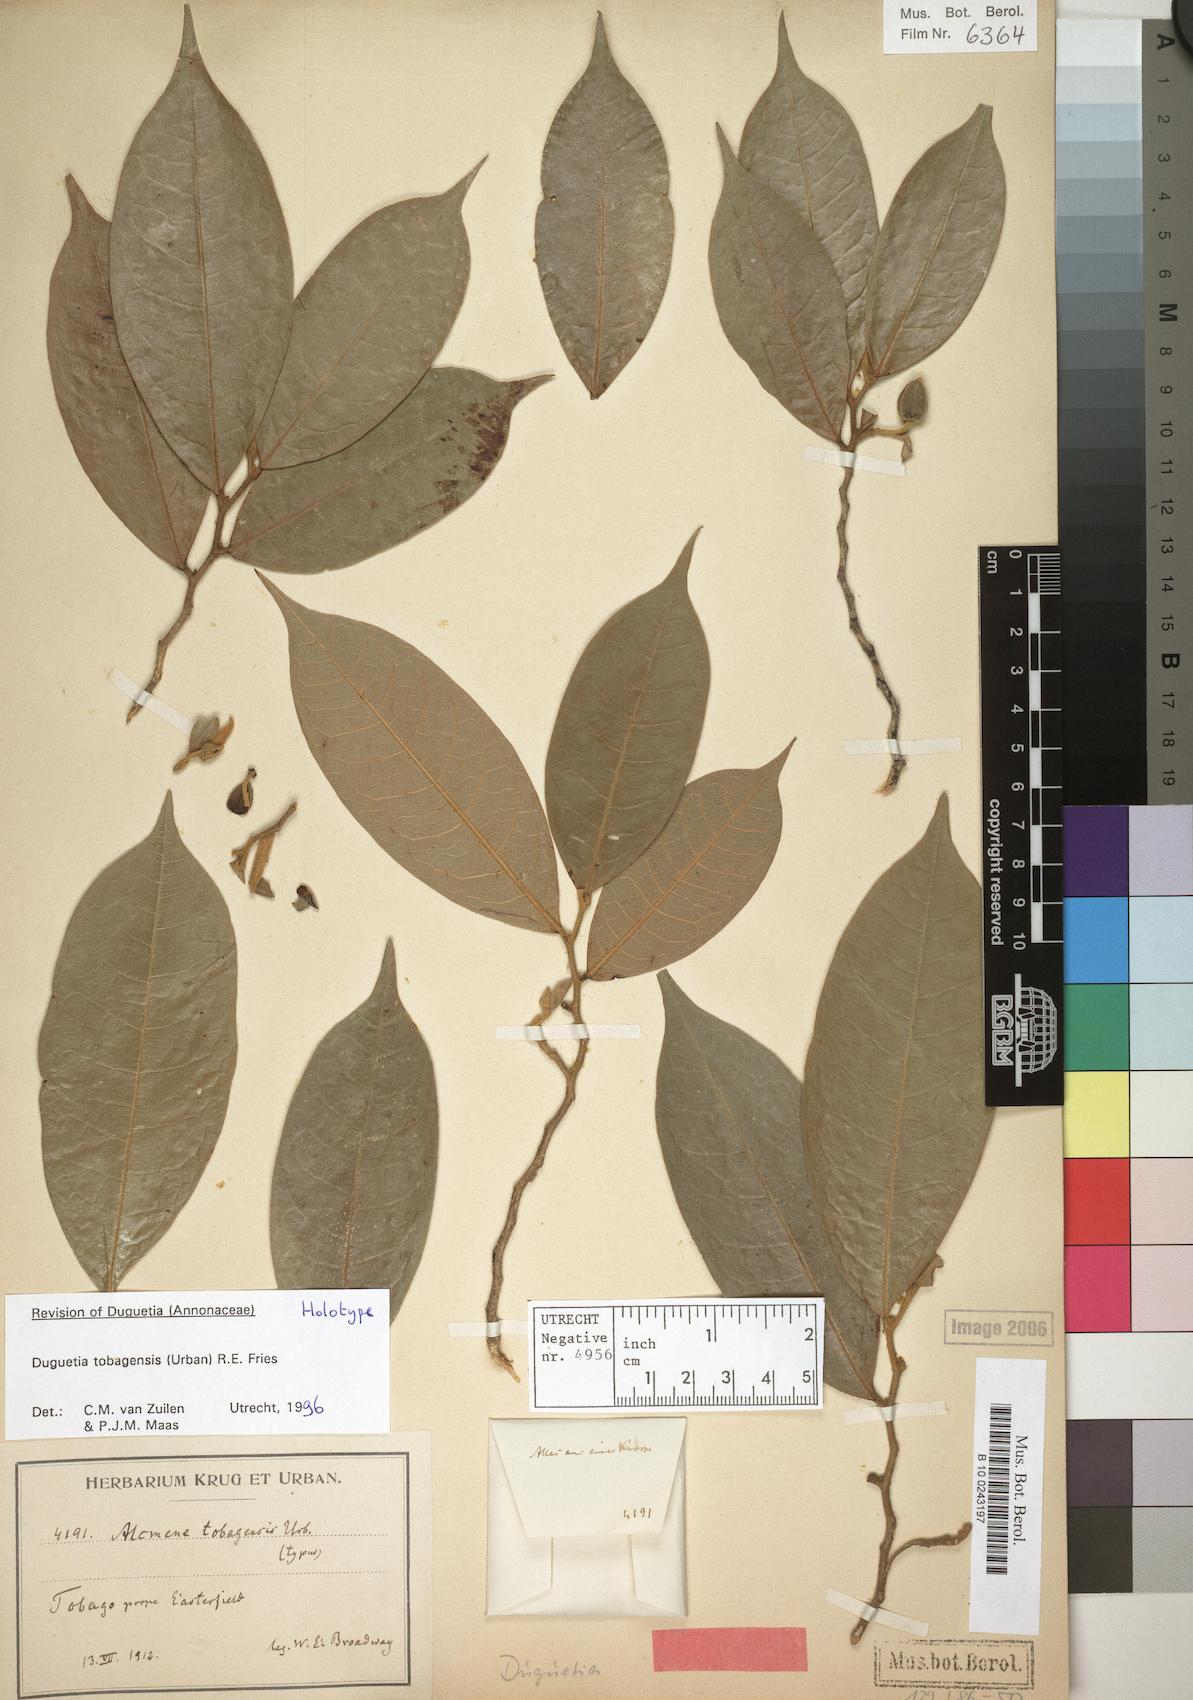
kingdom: Plantae
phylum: Tracheophyta
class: Magnoliopsida
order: Magnoliales
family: Annonaceae
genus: Duguetia
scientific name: Duguetia tobagensis
